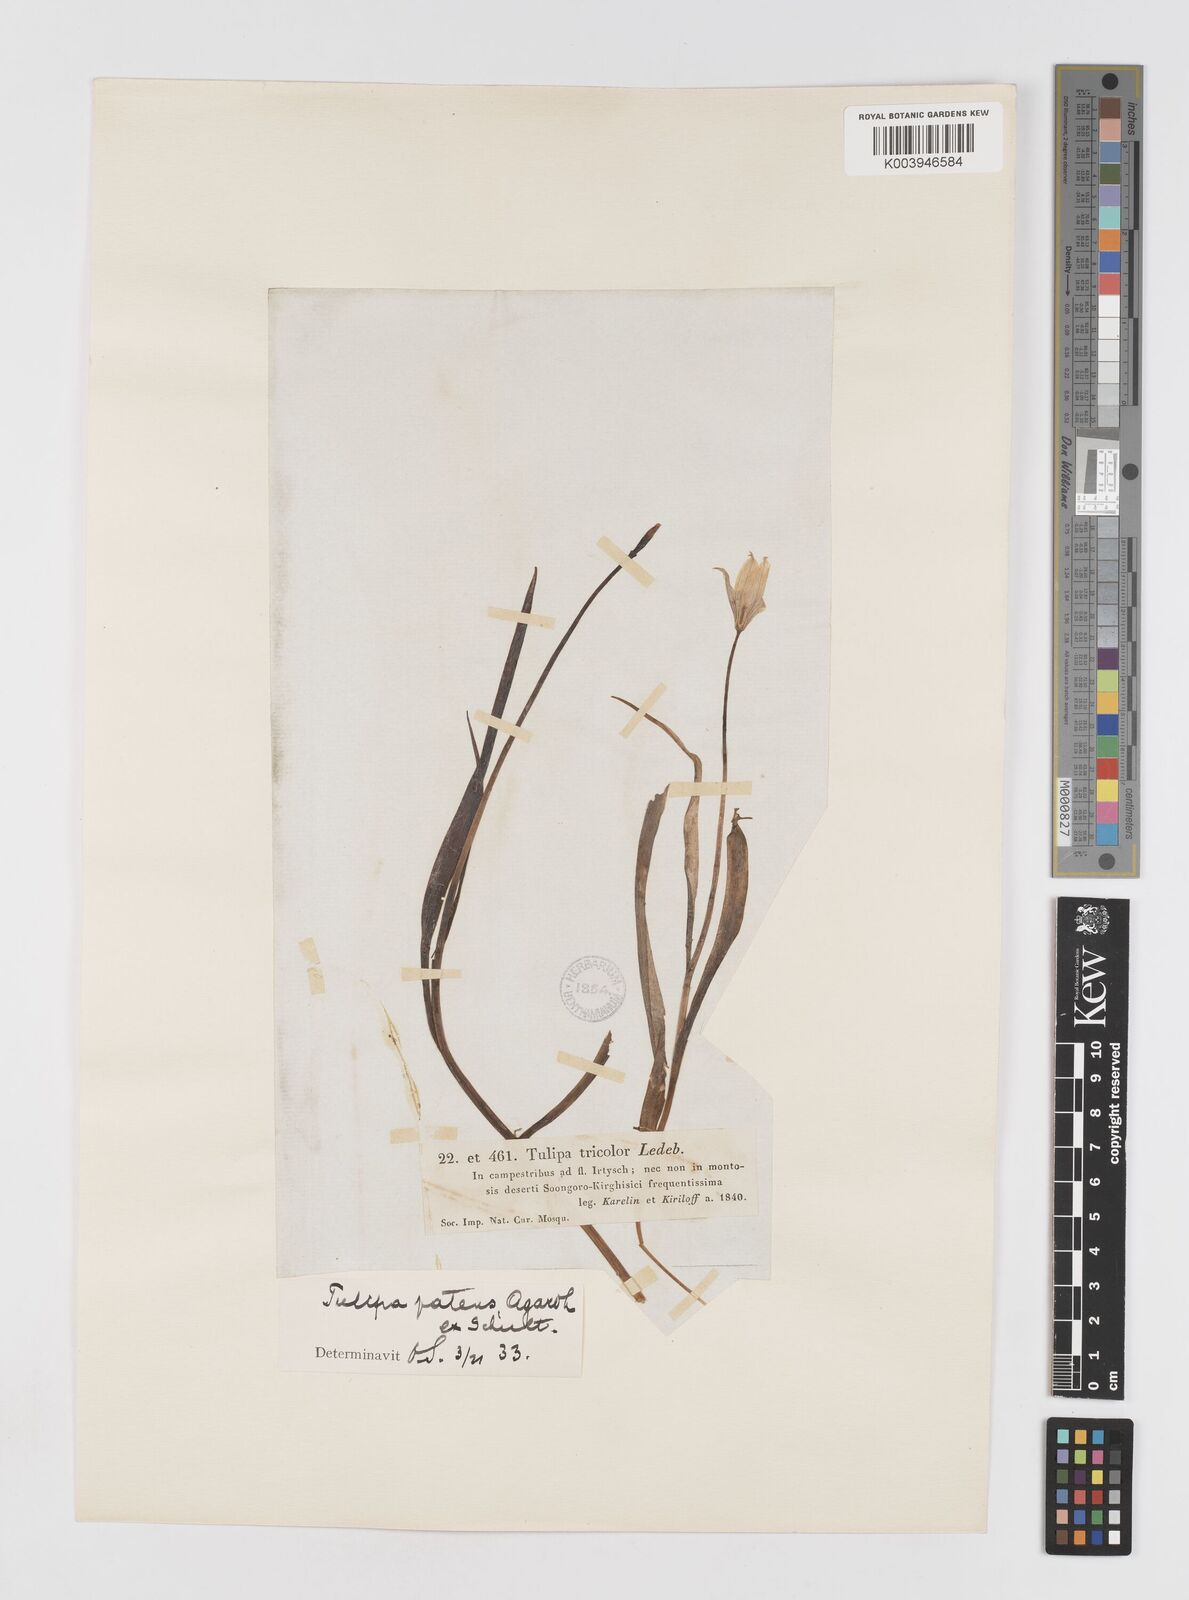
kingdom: Plantae
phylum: Tracheophyta
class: Liliopsida
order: Liliales
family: Liliaceae
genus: Tulipa
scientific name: Tulipa sylvestris
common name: Wild tulip
